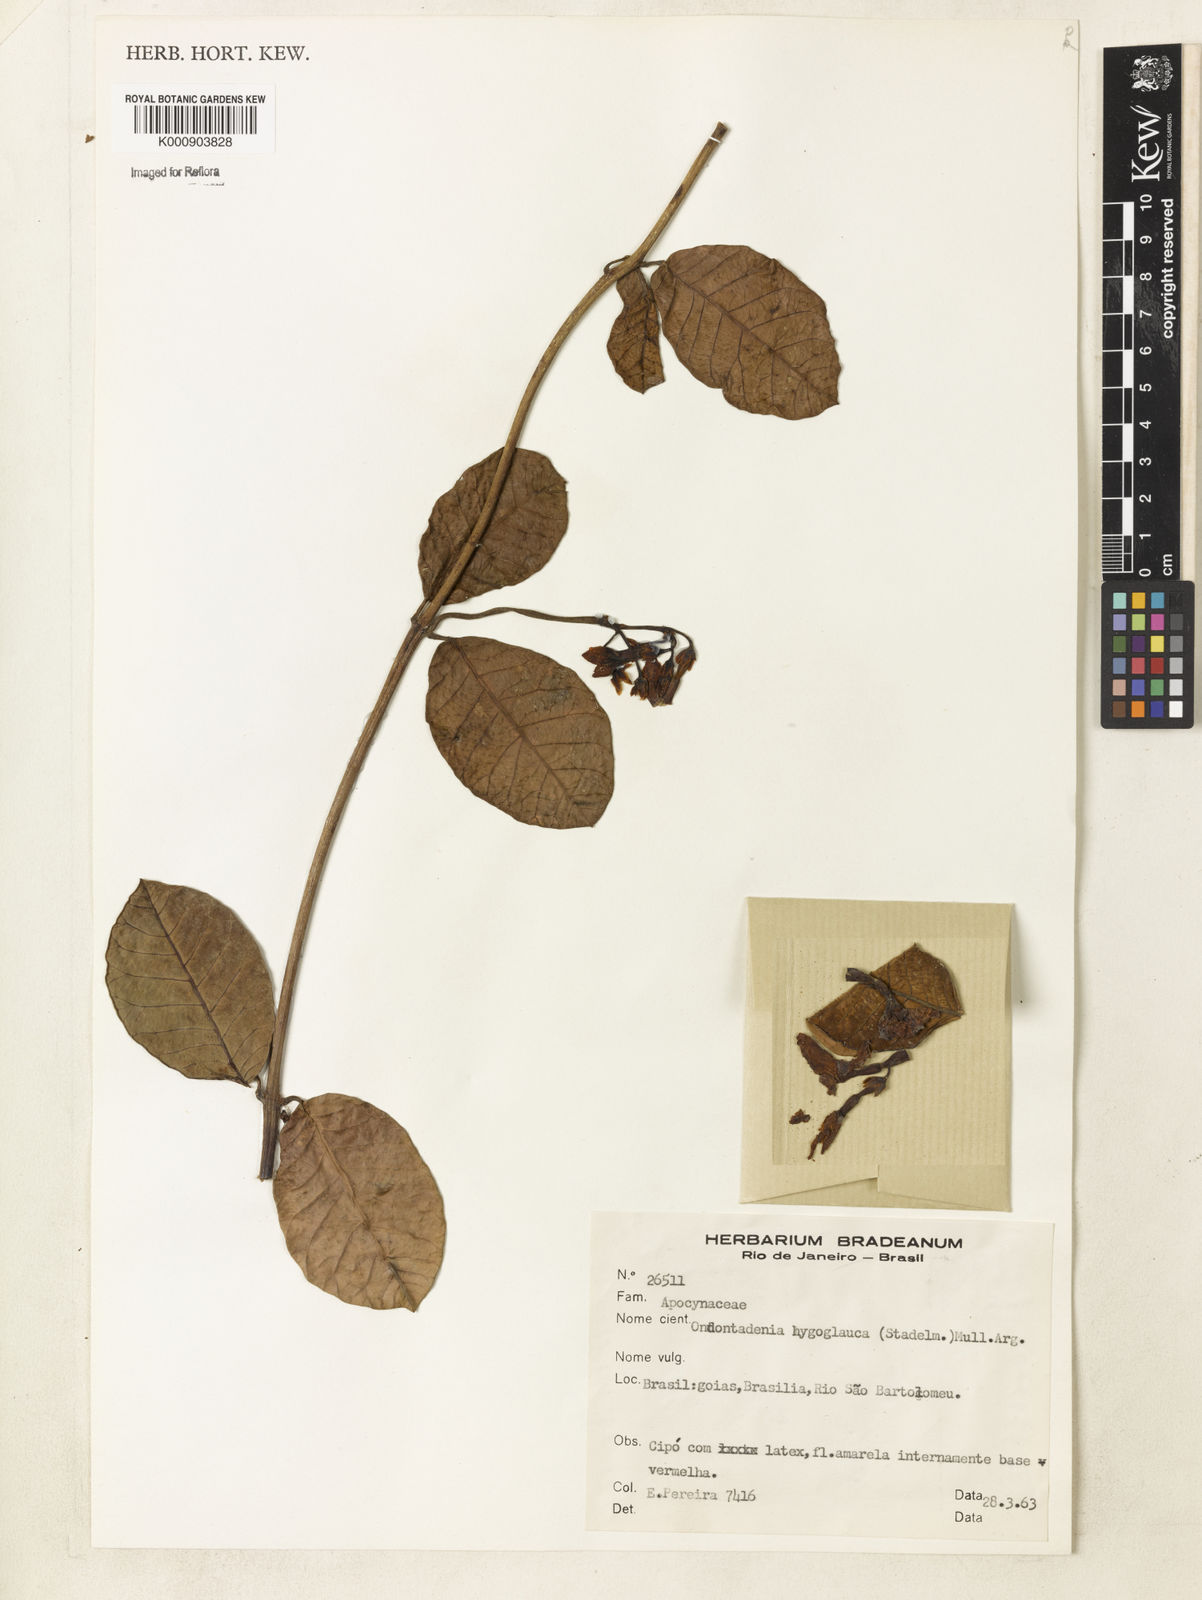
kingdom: Plantae
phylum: Tracheophyta
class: Magnoliopsida
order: Gentianales
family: Apocynaceae
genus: Odontadenia
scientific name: Odontadenia
